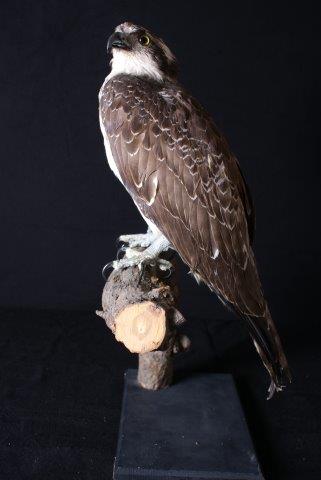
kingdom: Animalia
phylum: Chordata
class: Aves
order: Accipitriformes
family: Pandionidae
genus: Pandion
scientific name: Pandion haliaetus
